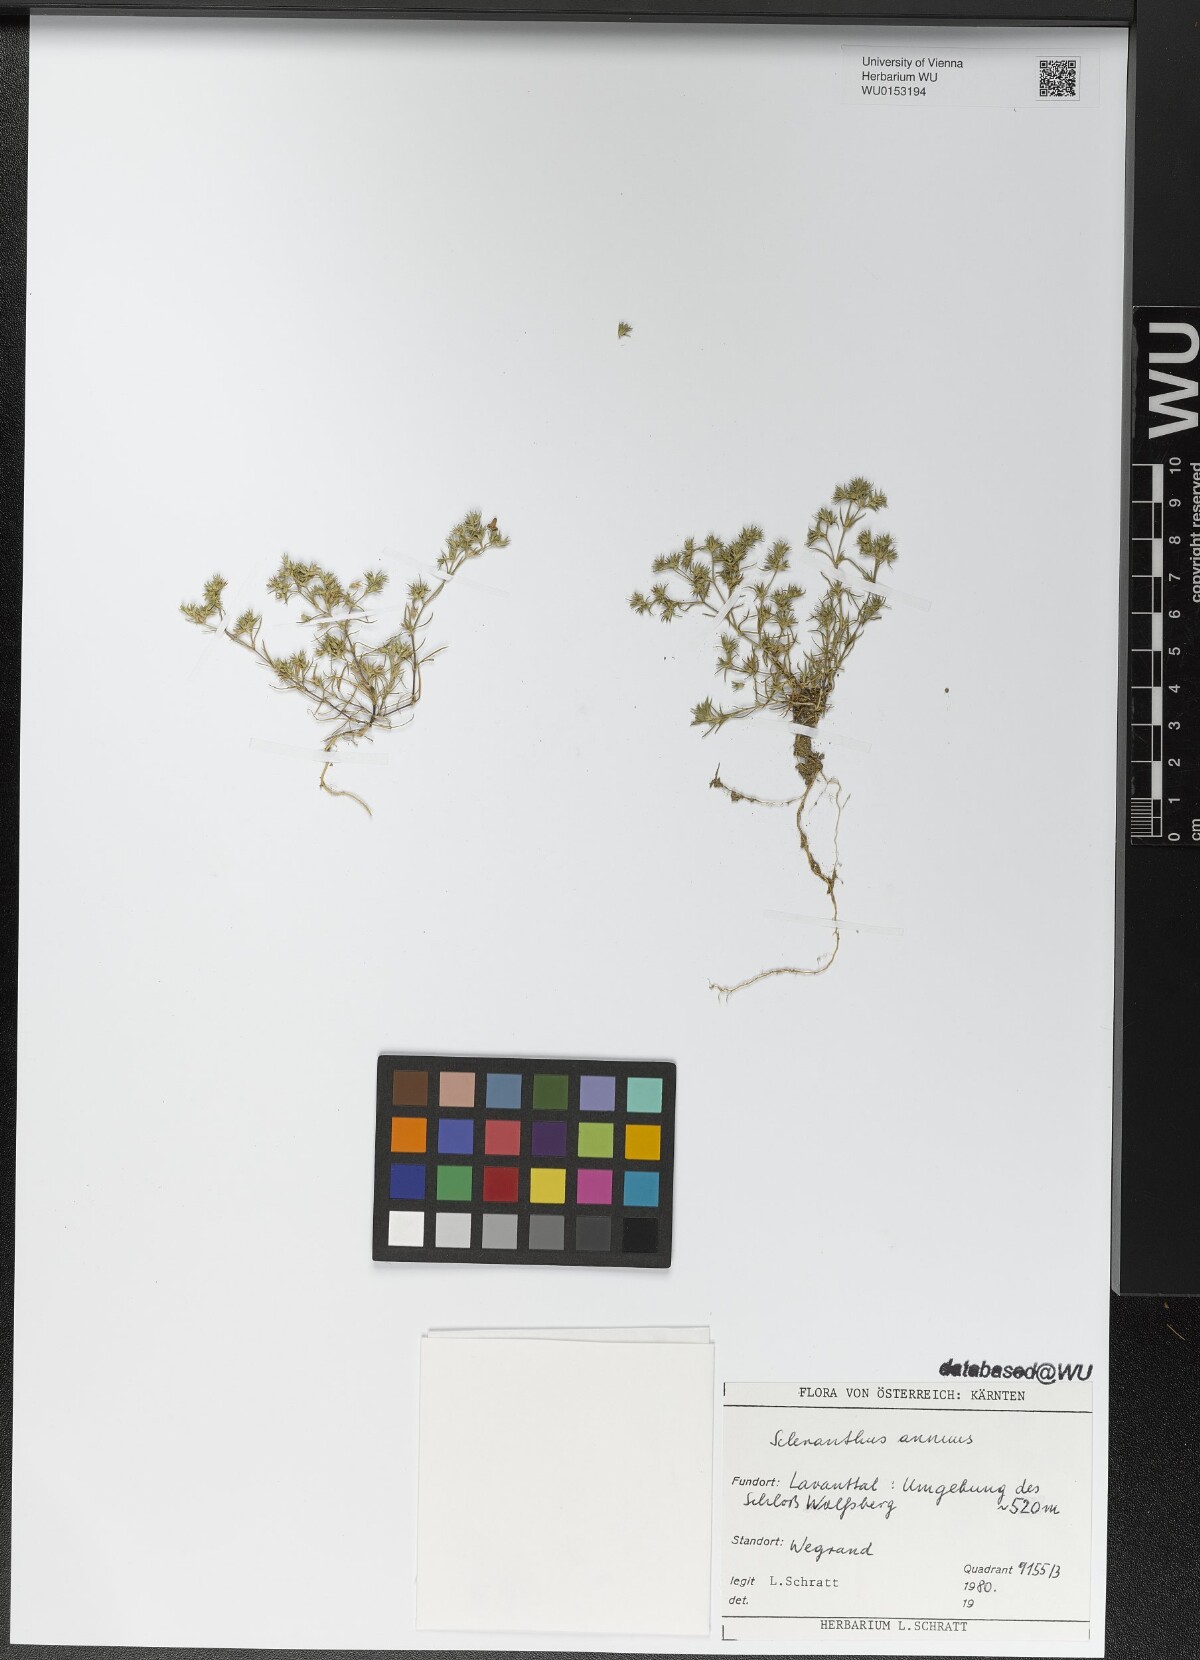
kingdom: Plantae
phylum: Tracheophyta
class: Magnoliopsida
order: Caryophyllales
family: Caryophyllaceae
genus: Scleranthus
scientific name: Scleranthus annuus
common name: Annual knawel
